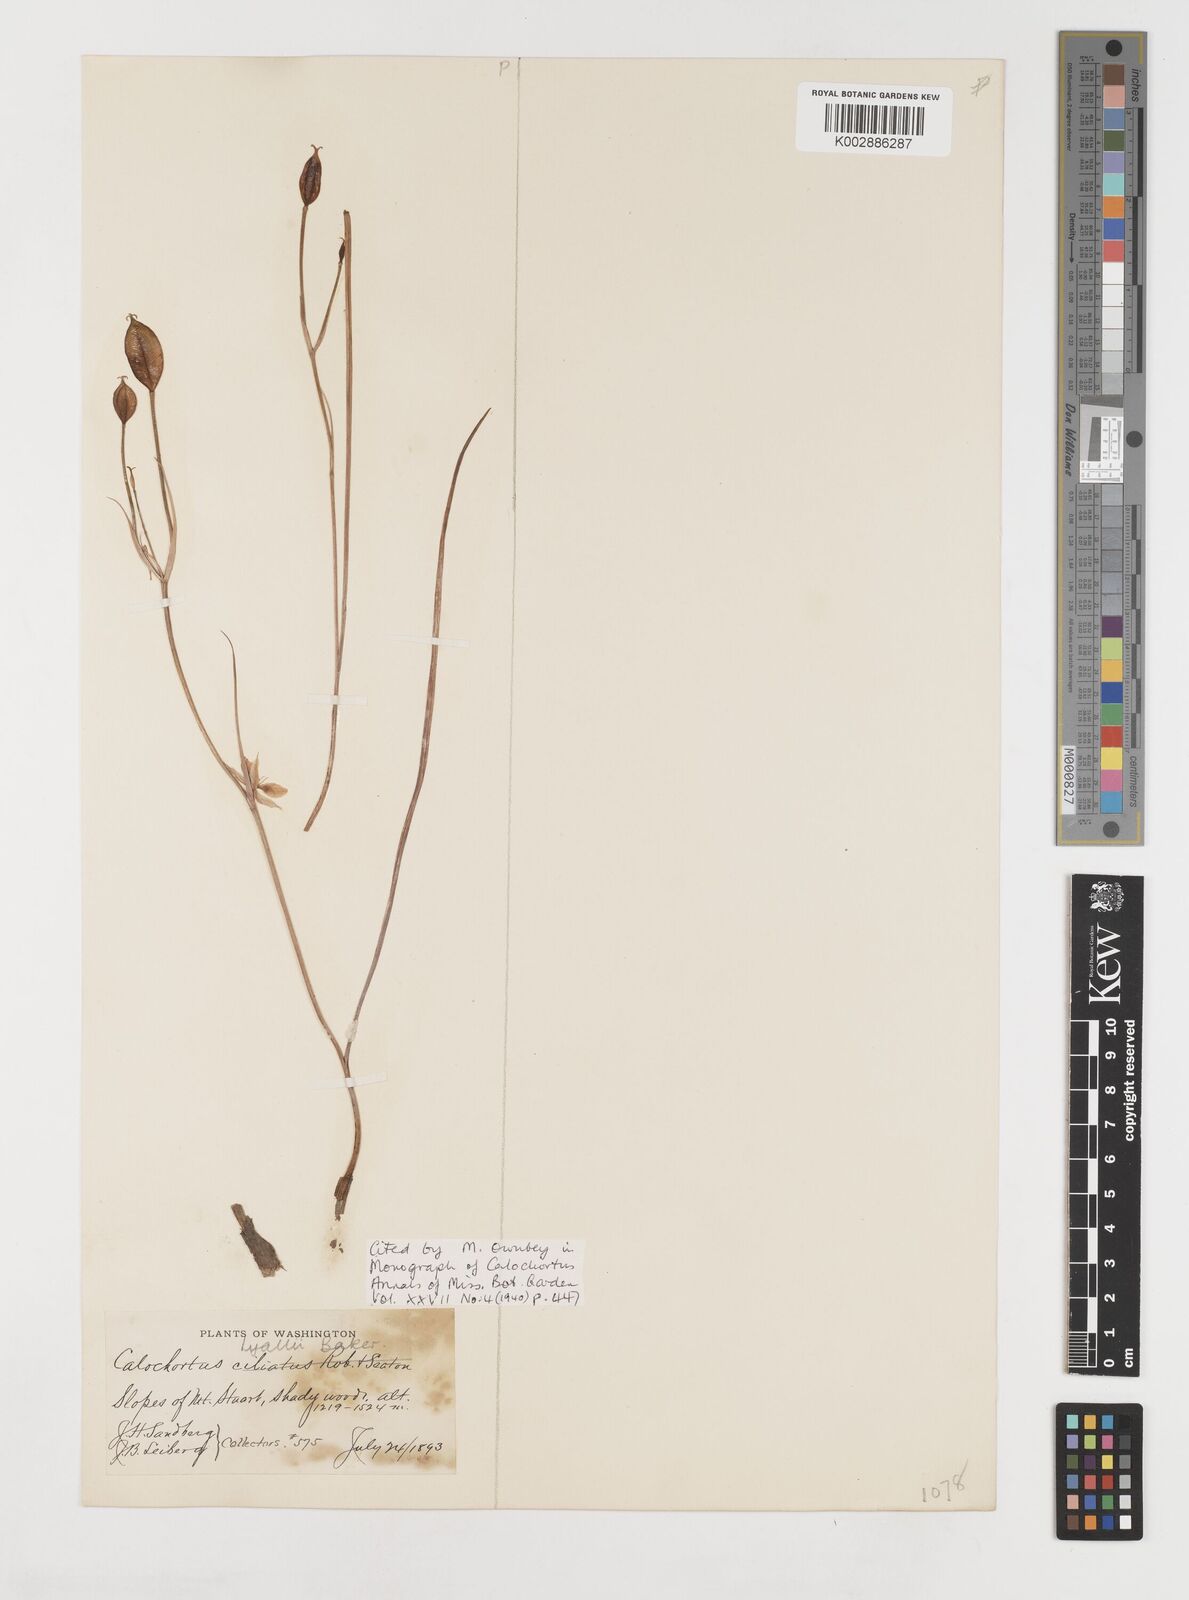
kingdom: Plantae
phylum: Tracheophyta
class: Liliopsida
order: Liliales
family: Liliaceae
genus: Calochortus
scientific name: Calochortus lyallii
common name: Lyall's mariposa lily
